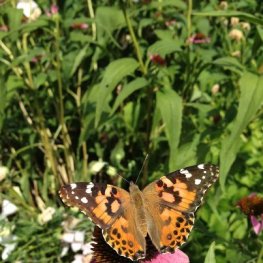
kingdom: Animalia
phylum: Arthropoda
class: Insecta
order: Lepidoptera
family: Nymphalidae
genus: Vanessa
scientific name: Vanessa cardui
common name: Painted Lady
